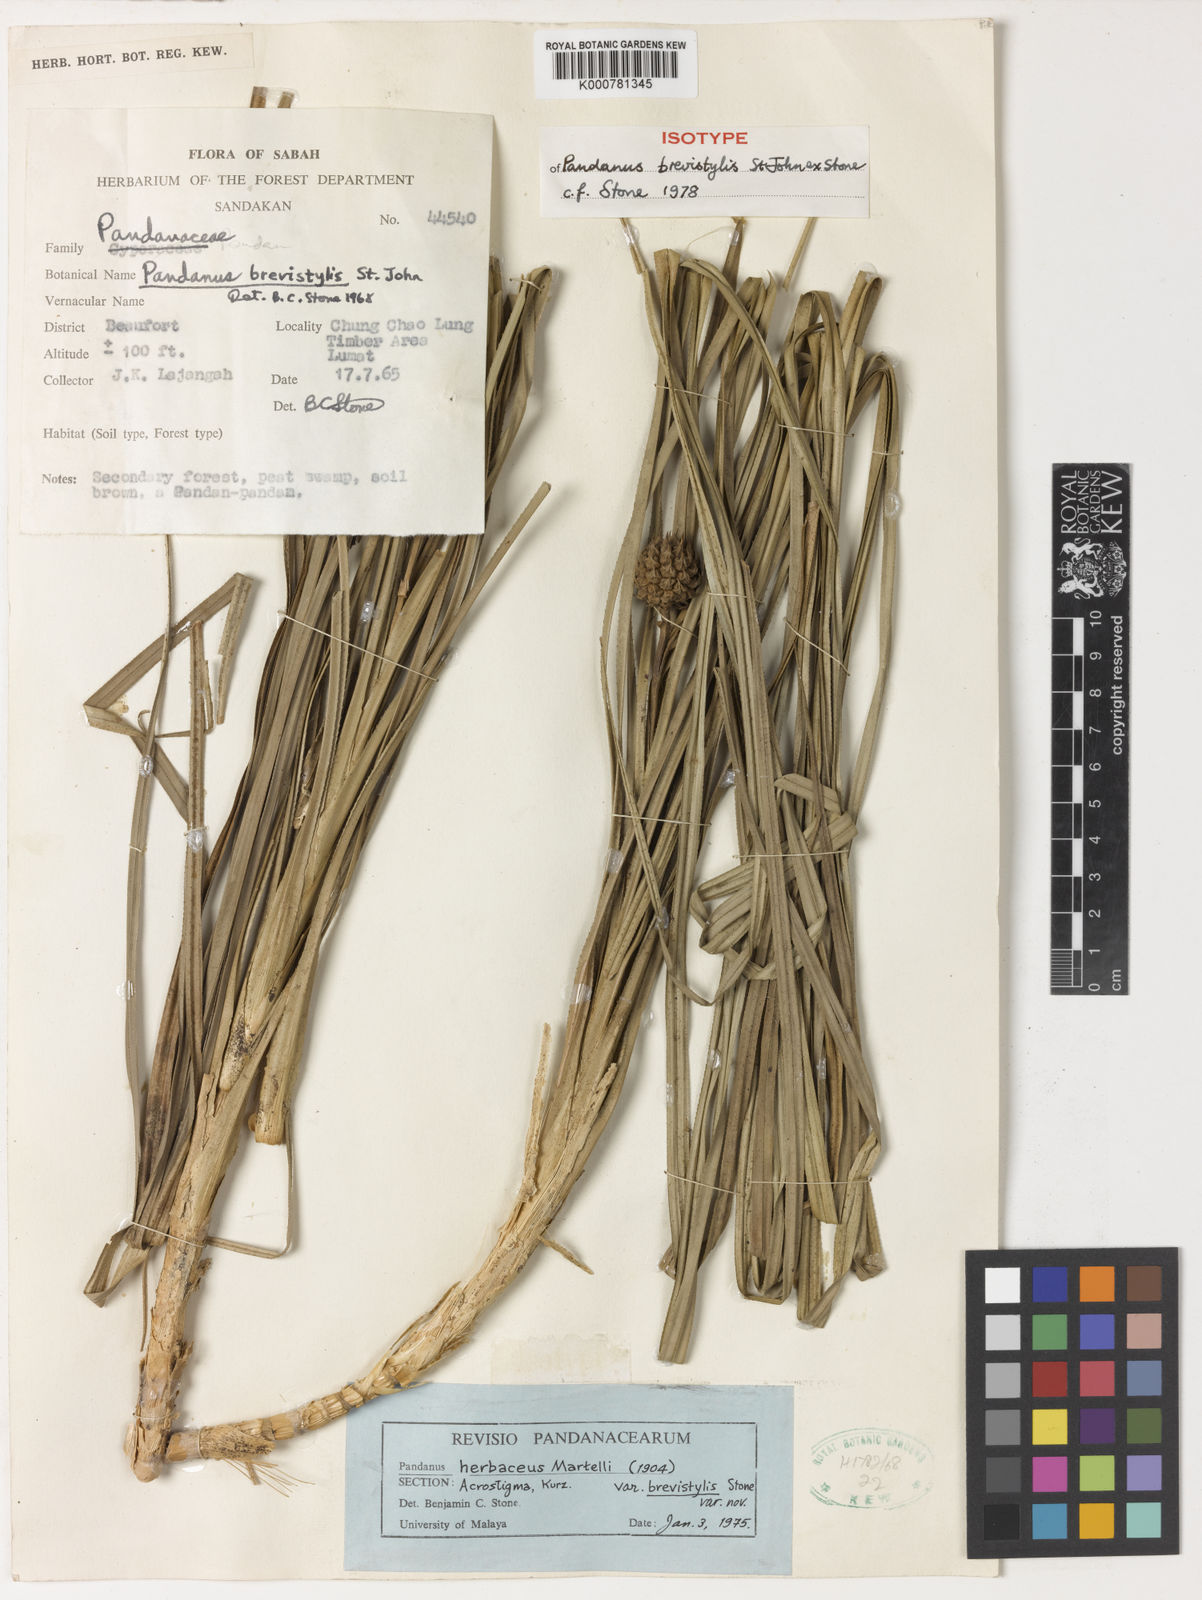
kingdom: Plantae
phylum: Tracheophyta
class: Liliopsida
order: Pandanales
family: Pandanaceae
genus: Benstonea
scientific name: Benstonea brevistylis
